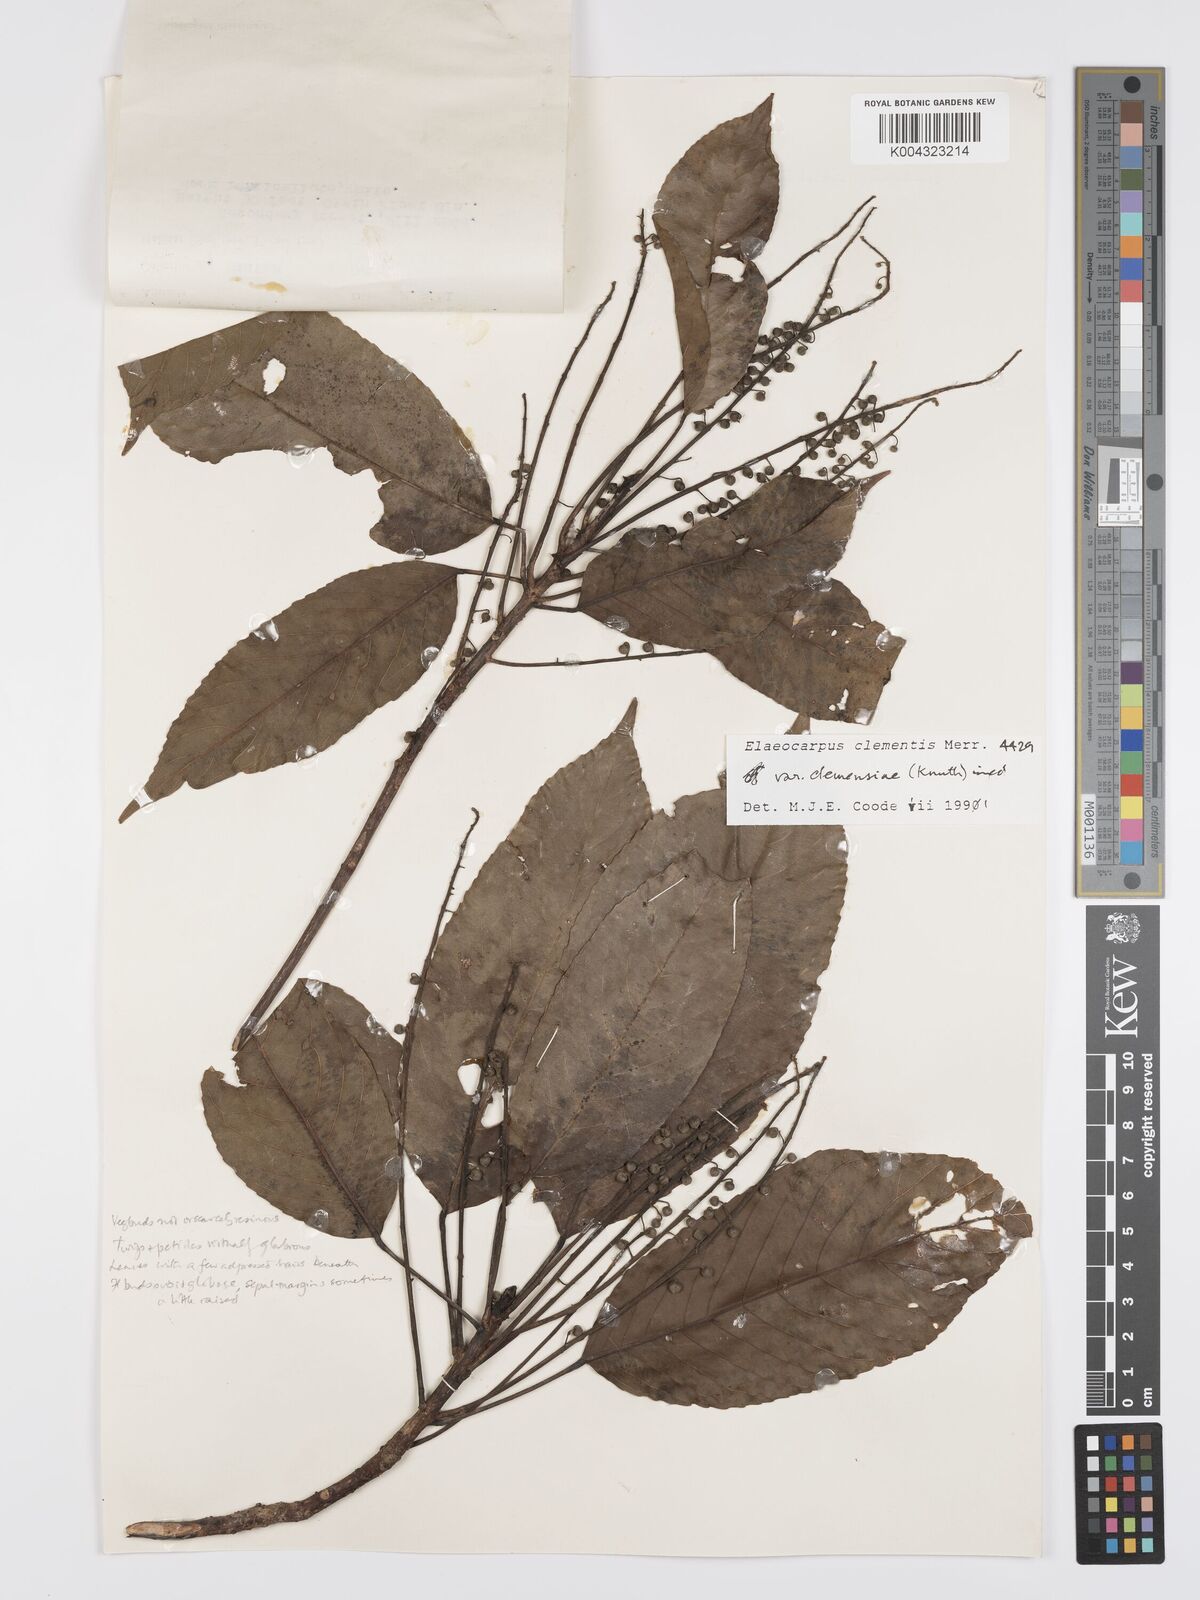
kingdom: Plantae
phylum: Tracheophyta
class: Magnoliopsida
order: Oxalidales
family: Elaeocarpaceae
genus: Elaeocarpus
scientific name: Elaeocarpus clementis
